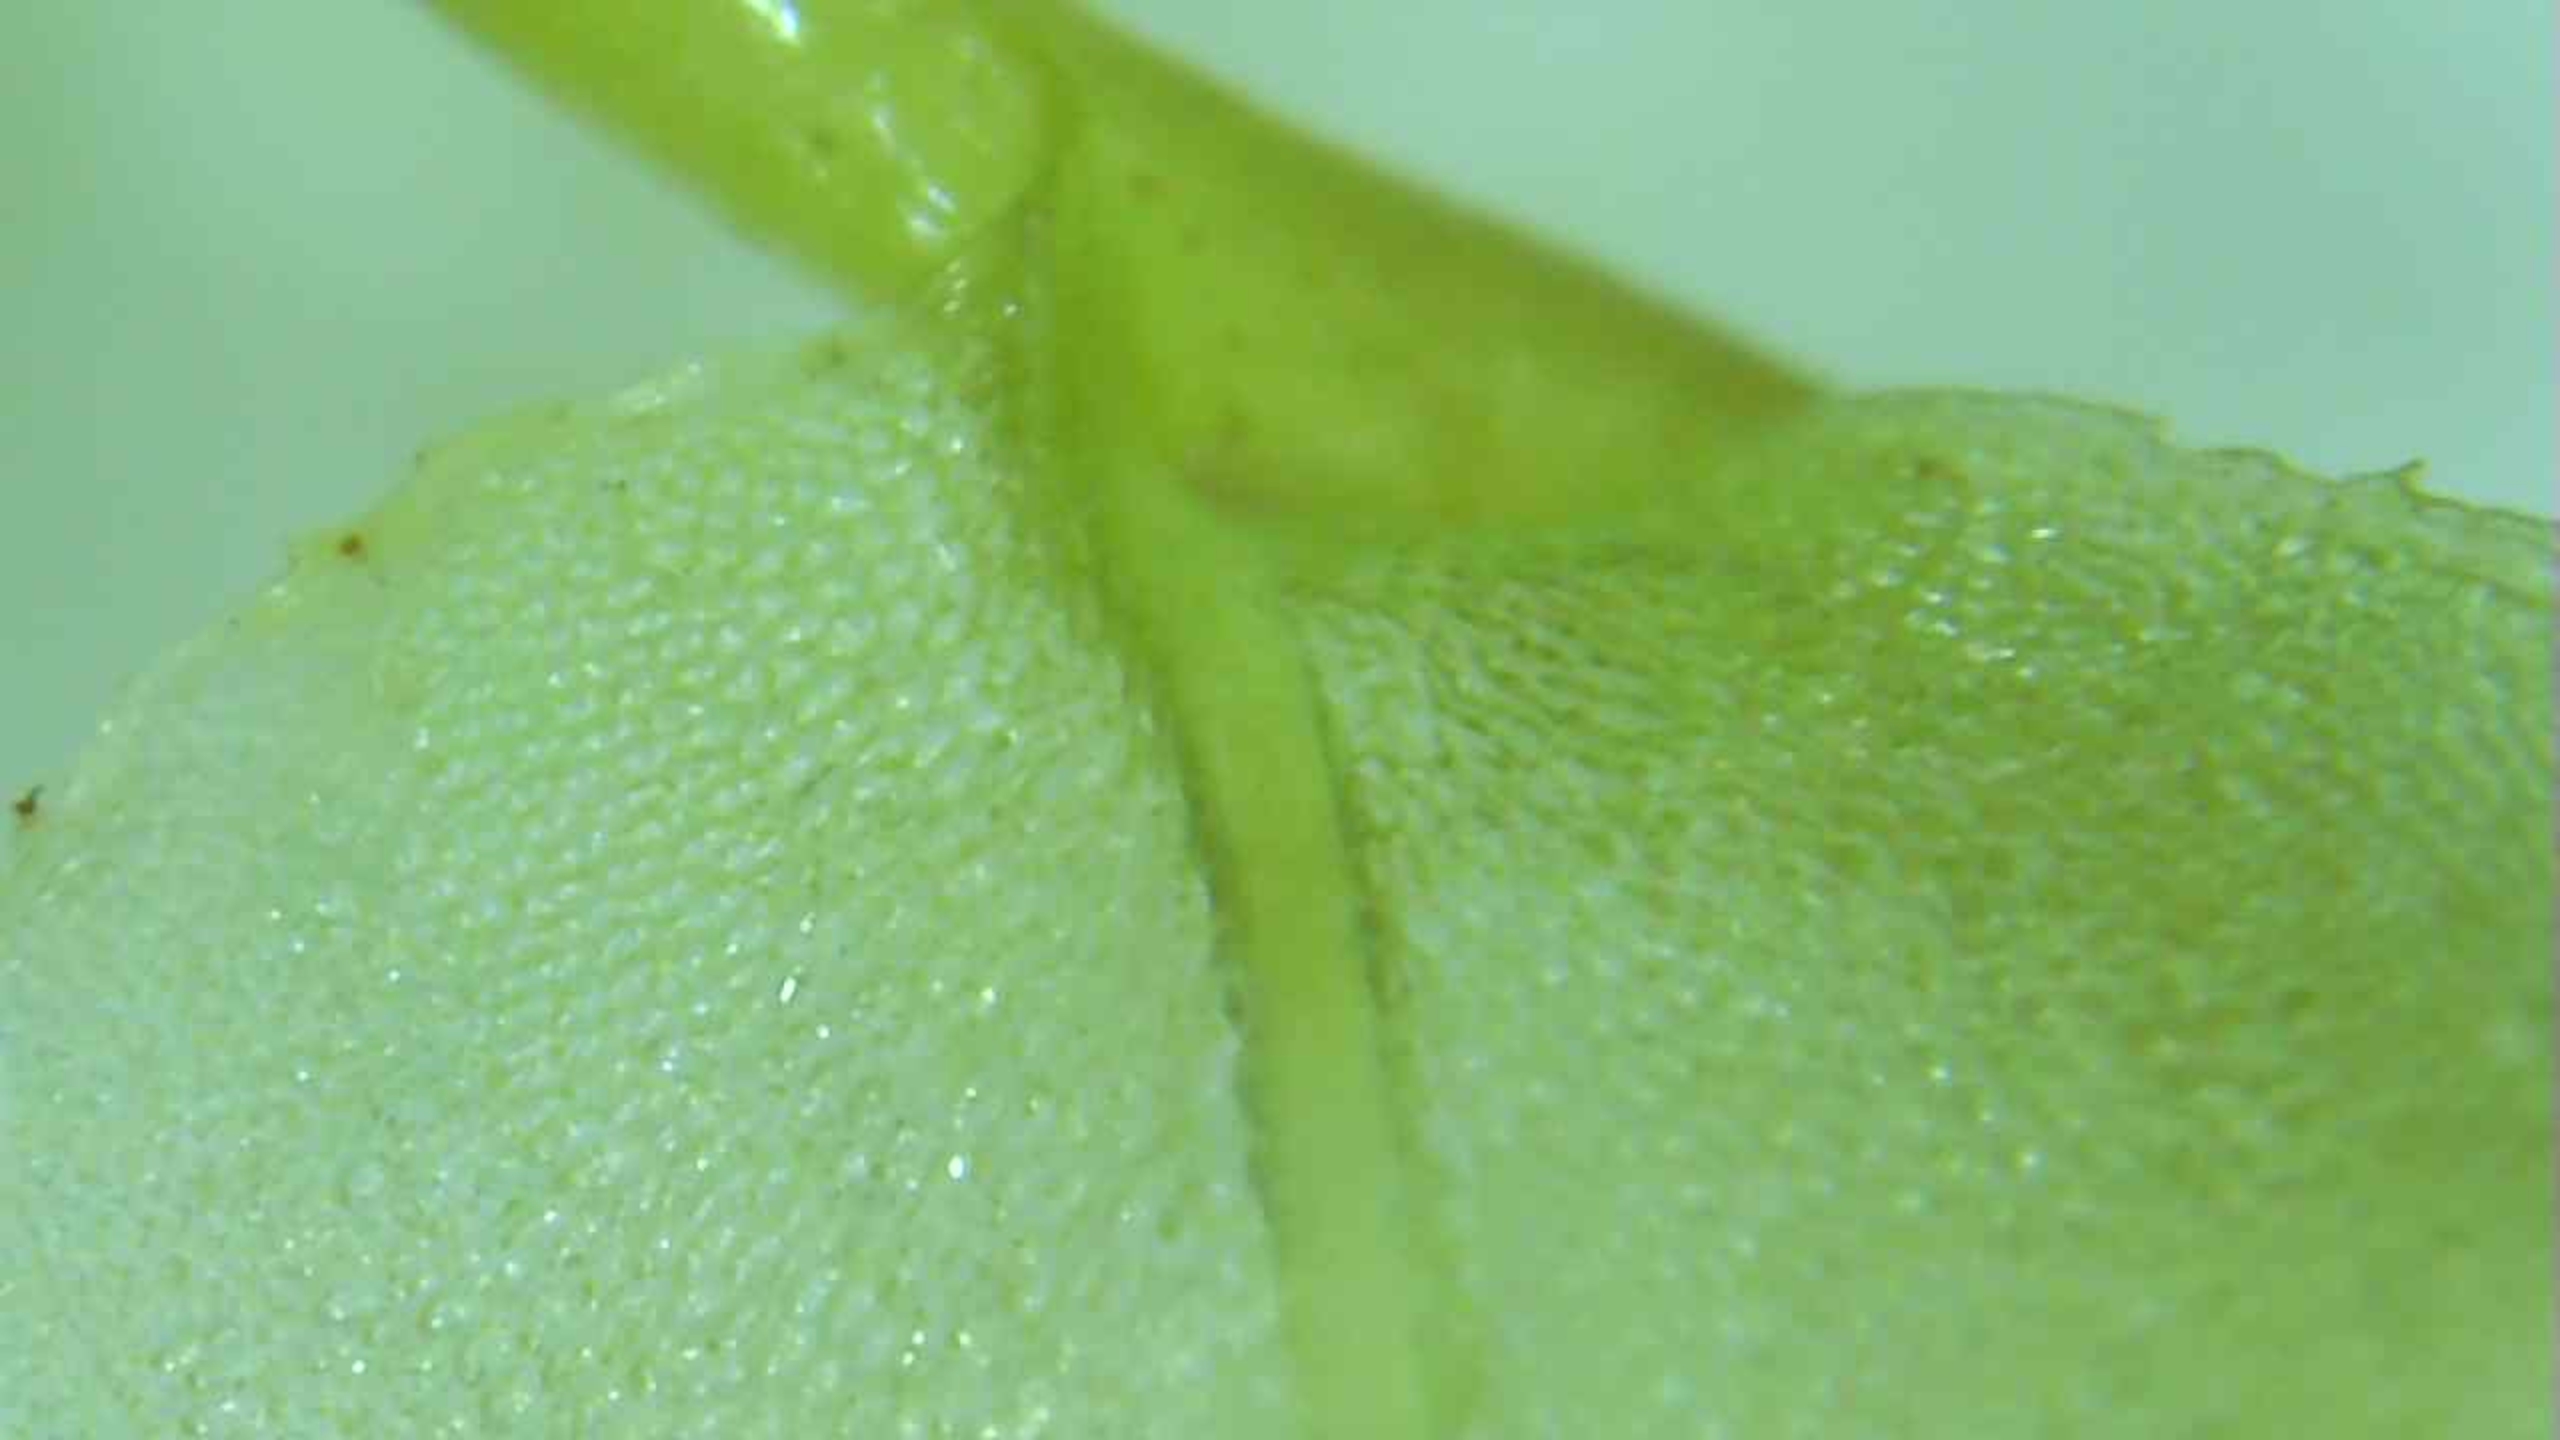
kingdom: Plantae
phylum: Bryophyta
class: Bryopsida
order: Bryales
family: Mniaceae
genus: Plagiomnium
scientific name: Plagiomnium affine
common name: Fælled-krybstjerne
